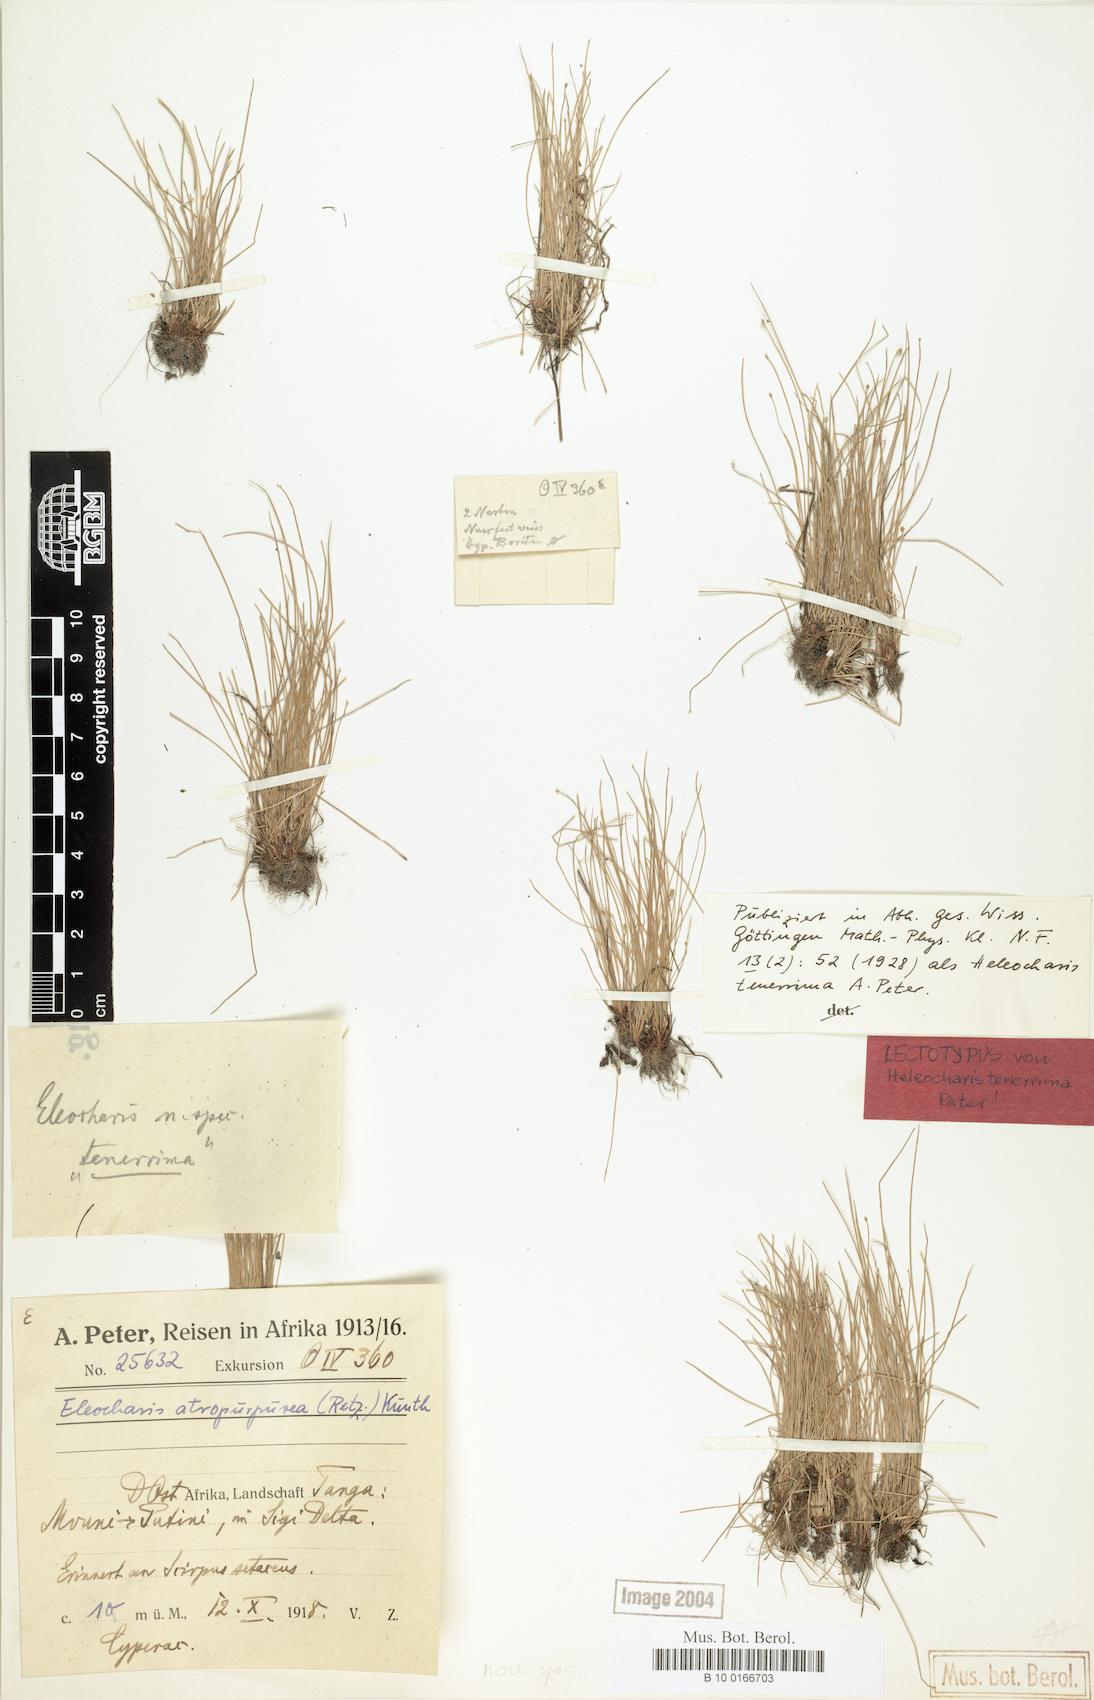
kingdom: Plantae
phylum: Tracheophyta
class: Liliopsida
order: Poales
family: Cyperaceae
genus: Eleocharis
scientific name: Eleocharis atropurpurea
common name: Purple spikerush
